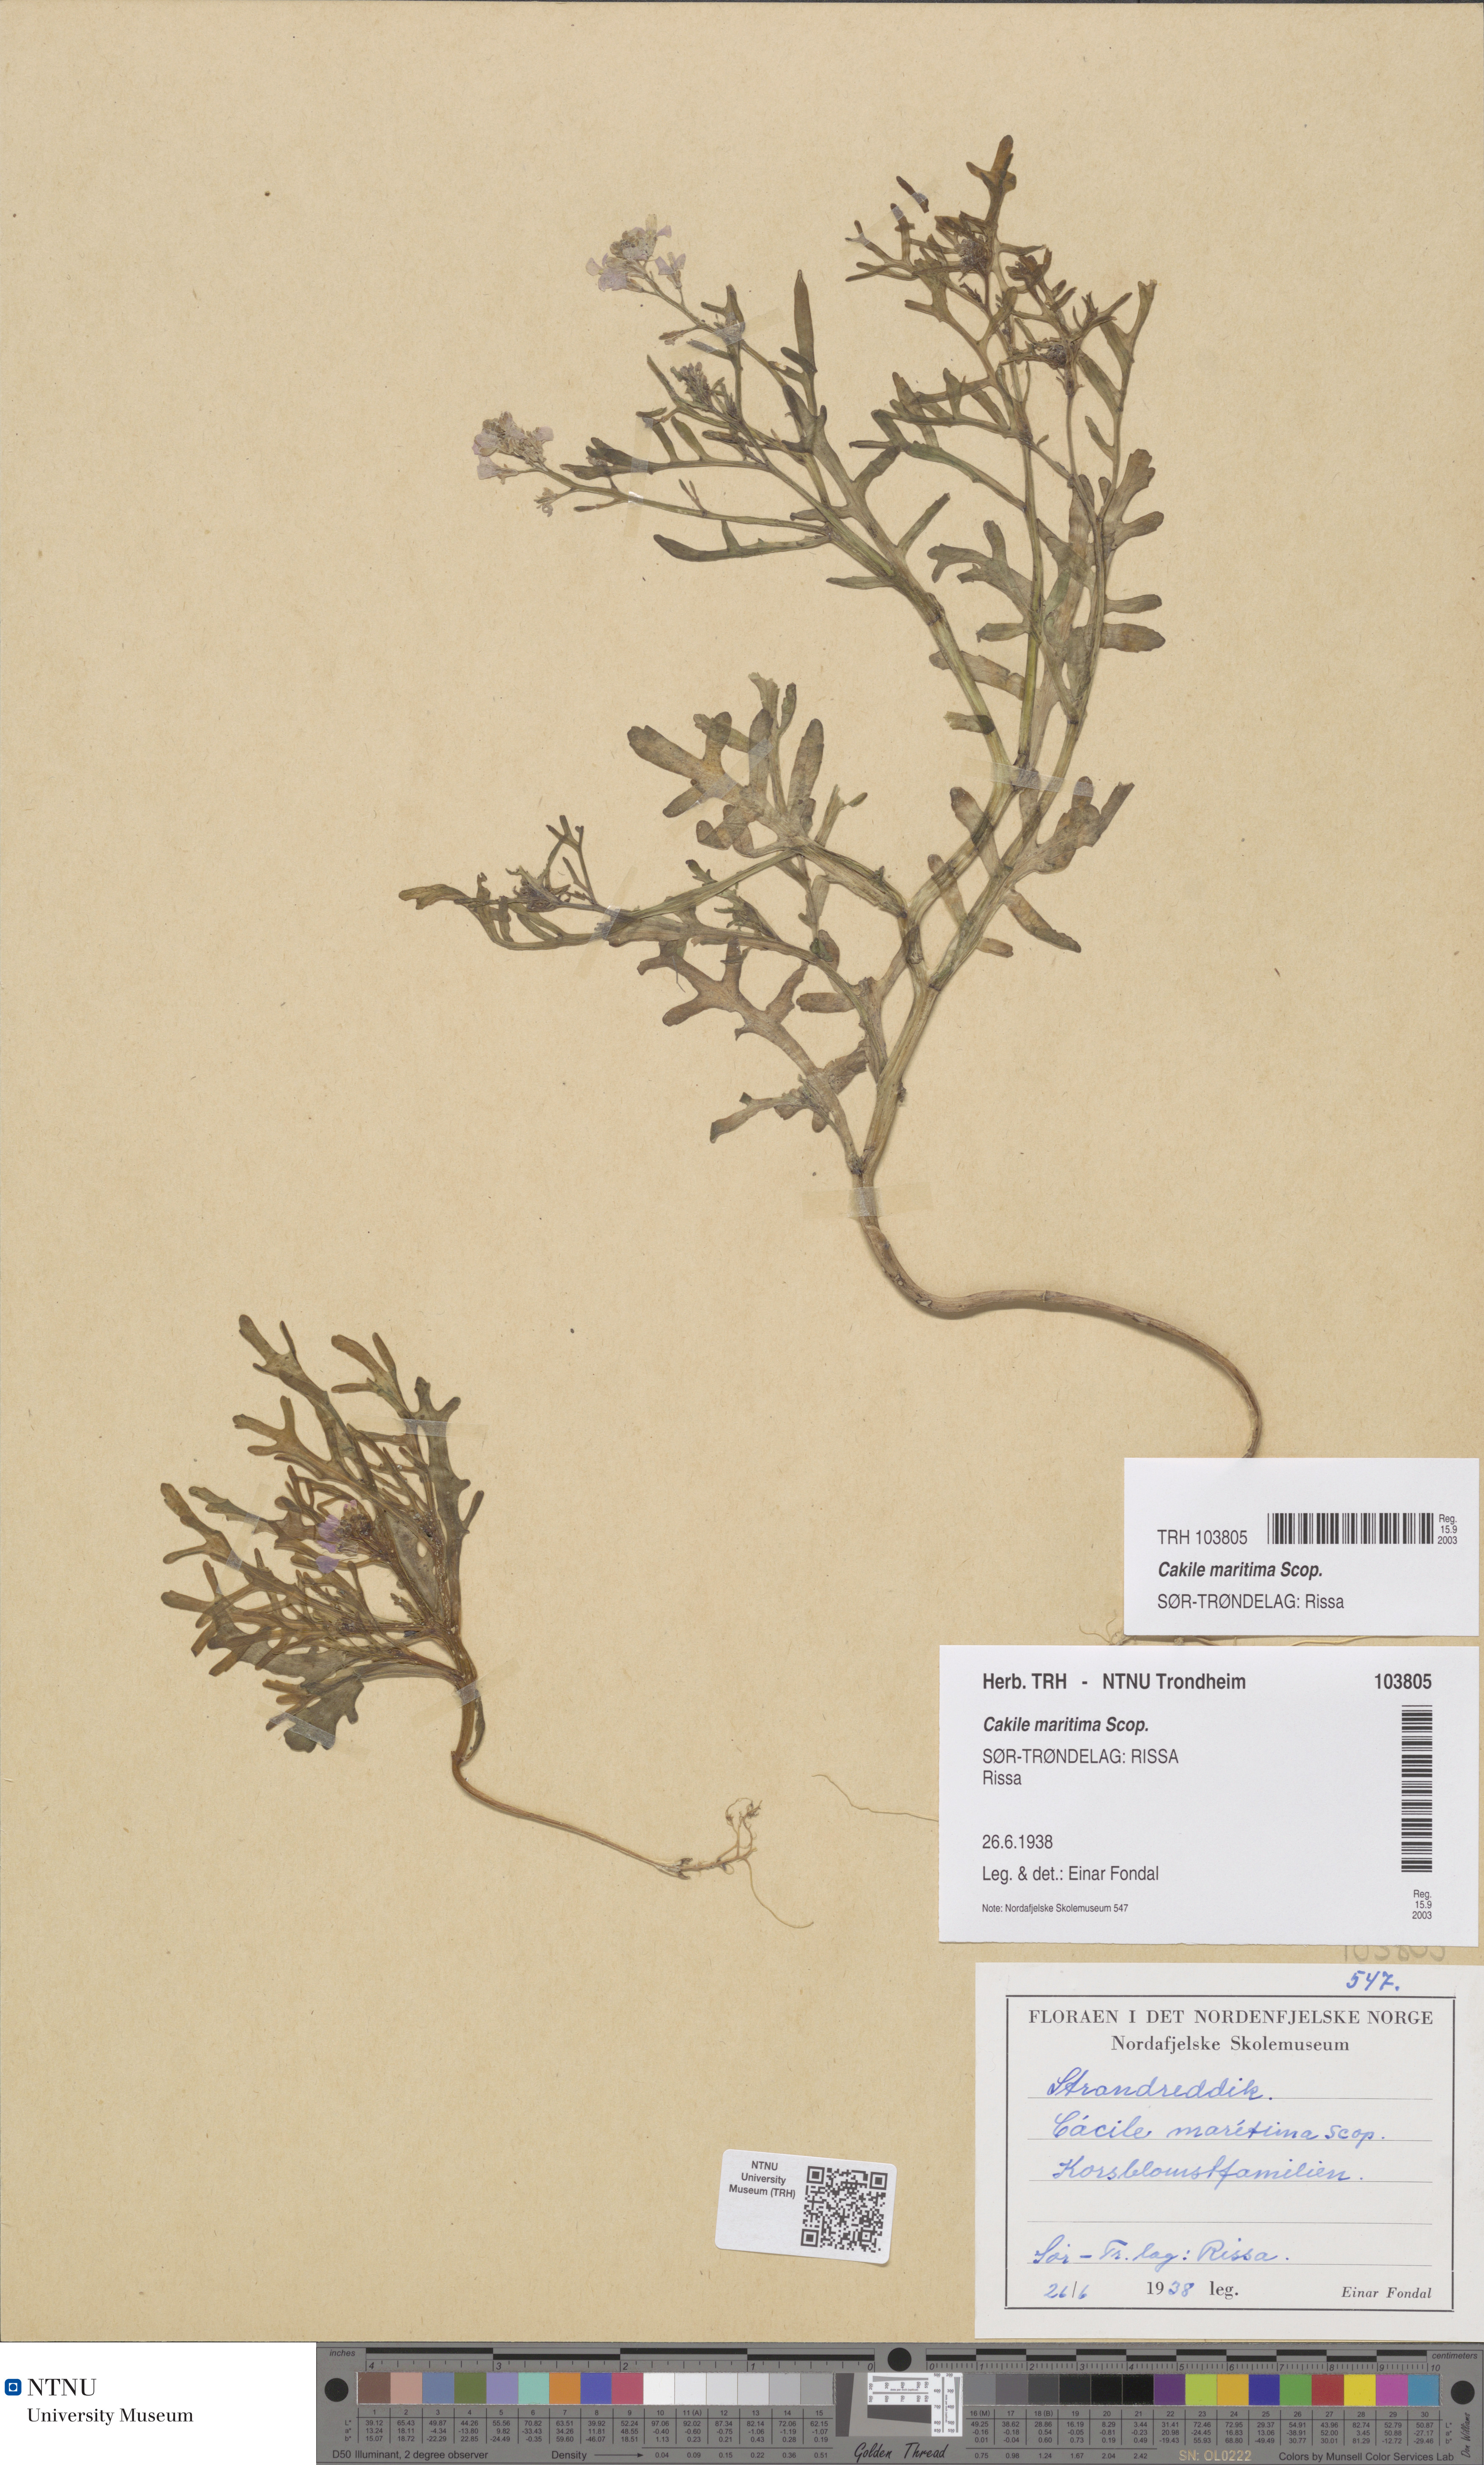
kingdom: Plantae
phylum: Tracheophyta
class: Magnoliopsida
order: Brassicales
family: Brassicaceae
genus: Cakile
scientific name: Cakile maritima
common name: Sea rocket
